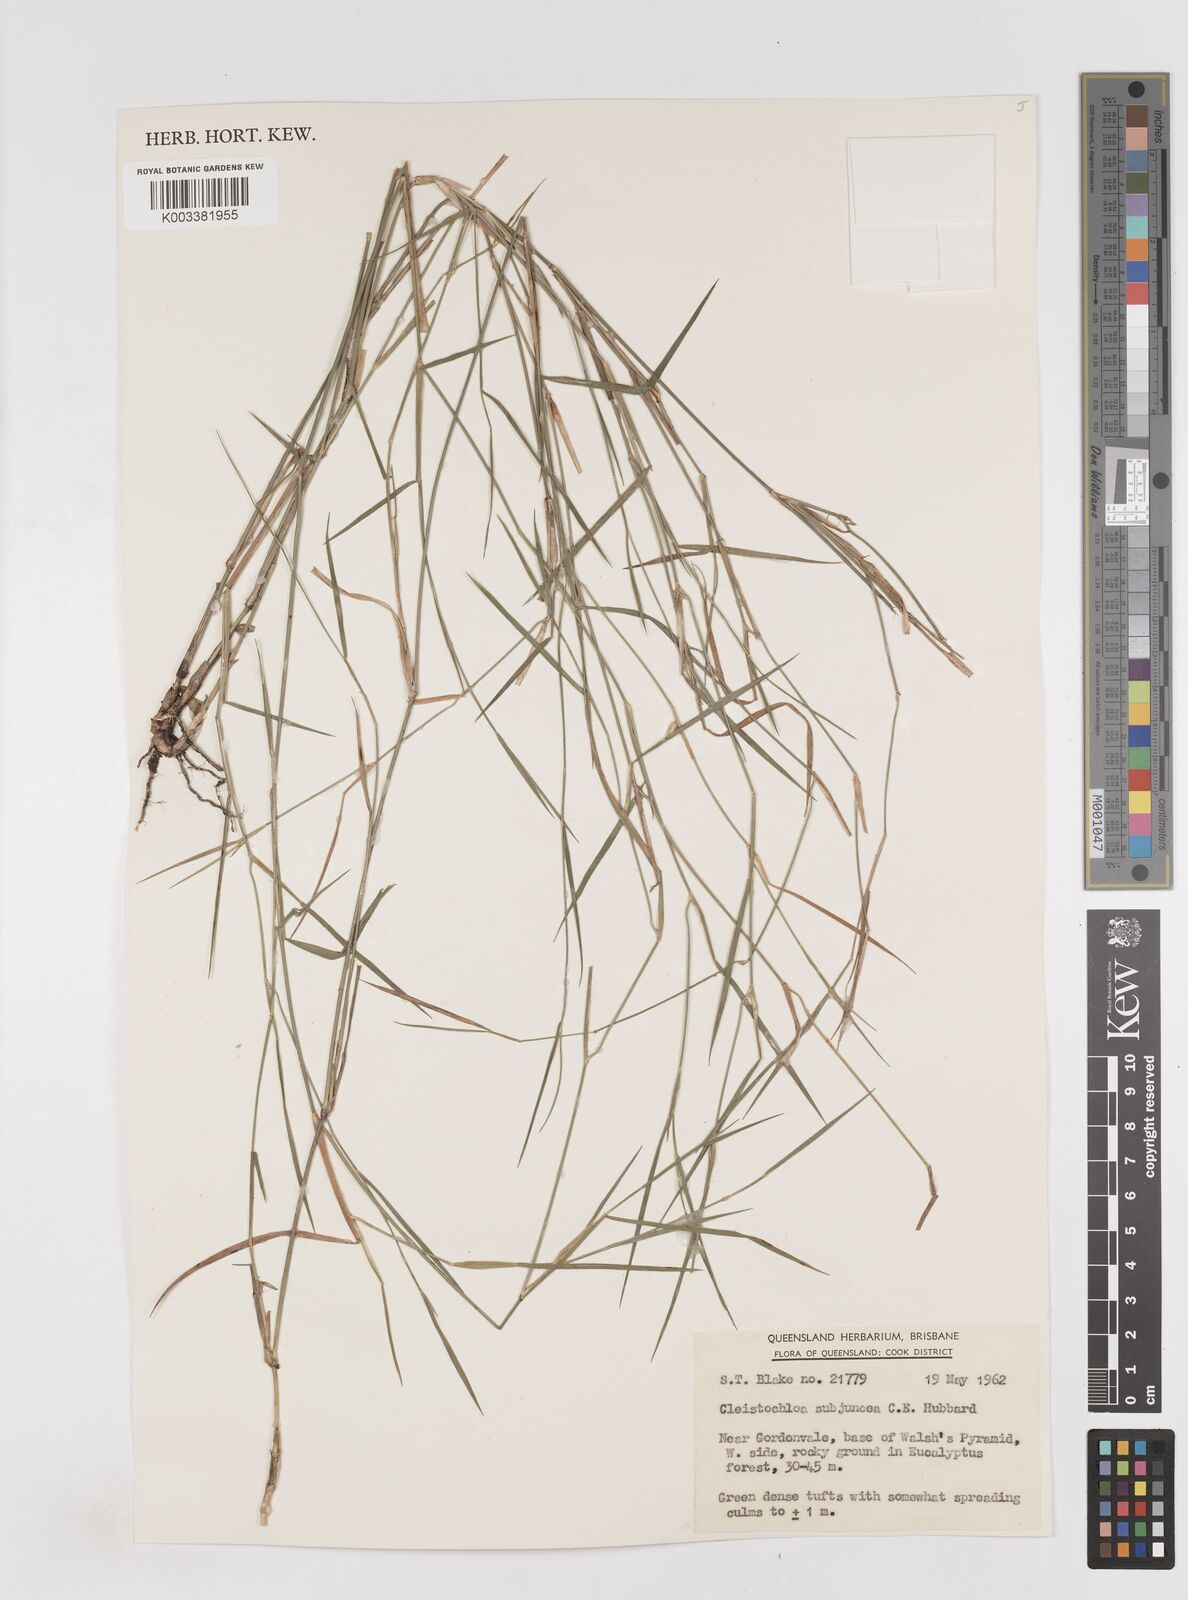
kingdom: Plantae
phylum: Tracheophyta
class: Liliopsida
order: Poales
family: Poaceae
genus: Cleistochloa
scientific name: Cleistochloa subjuncea
